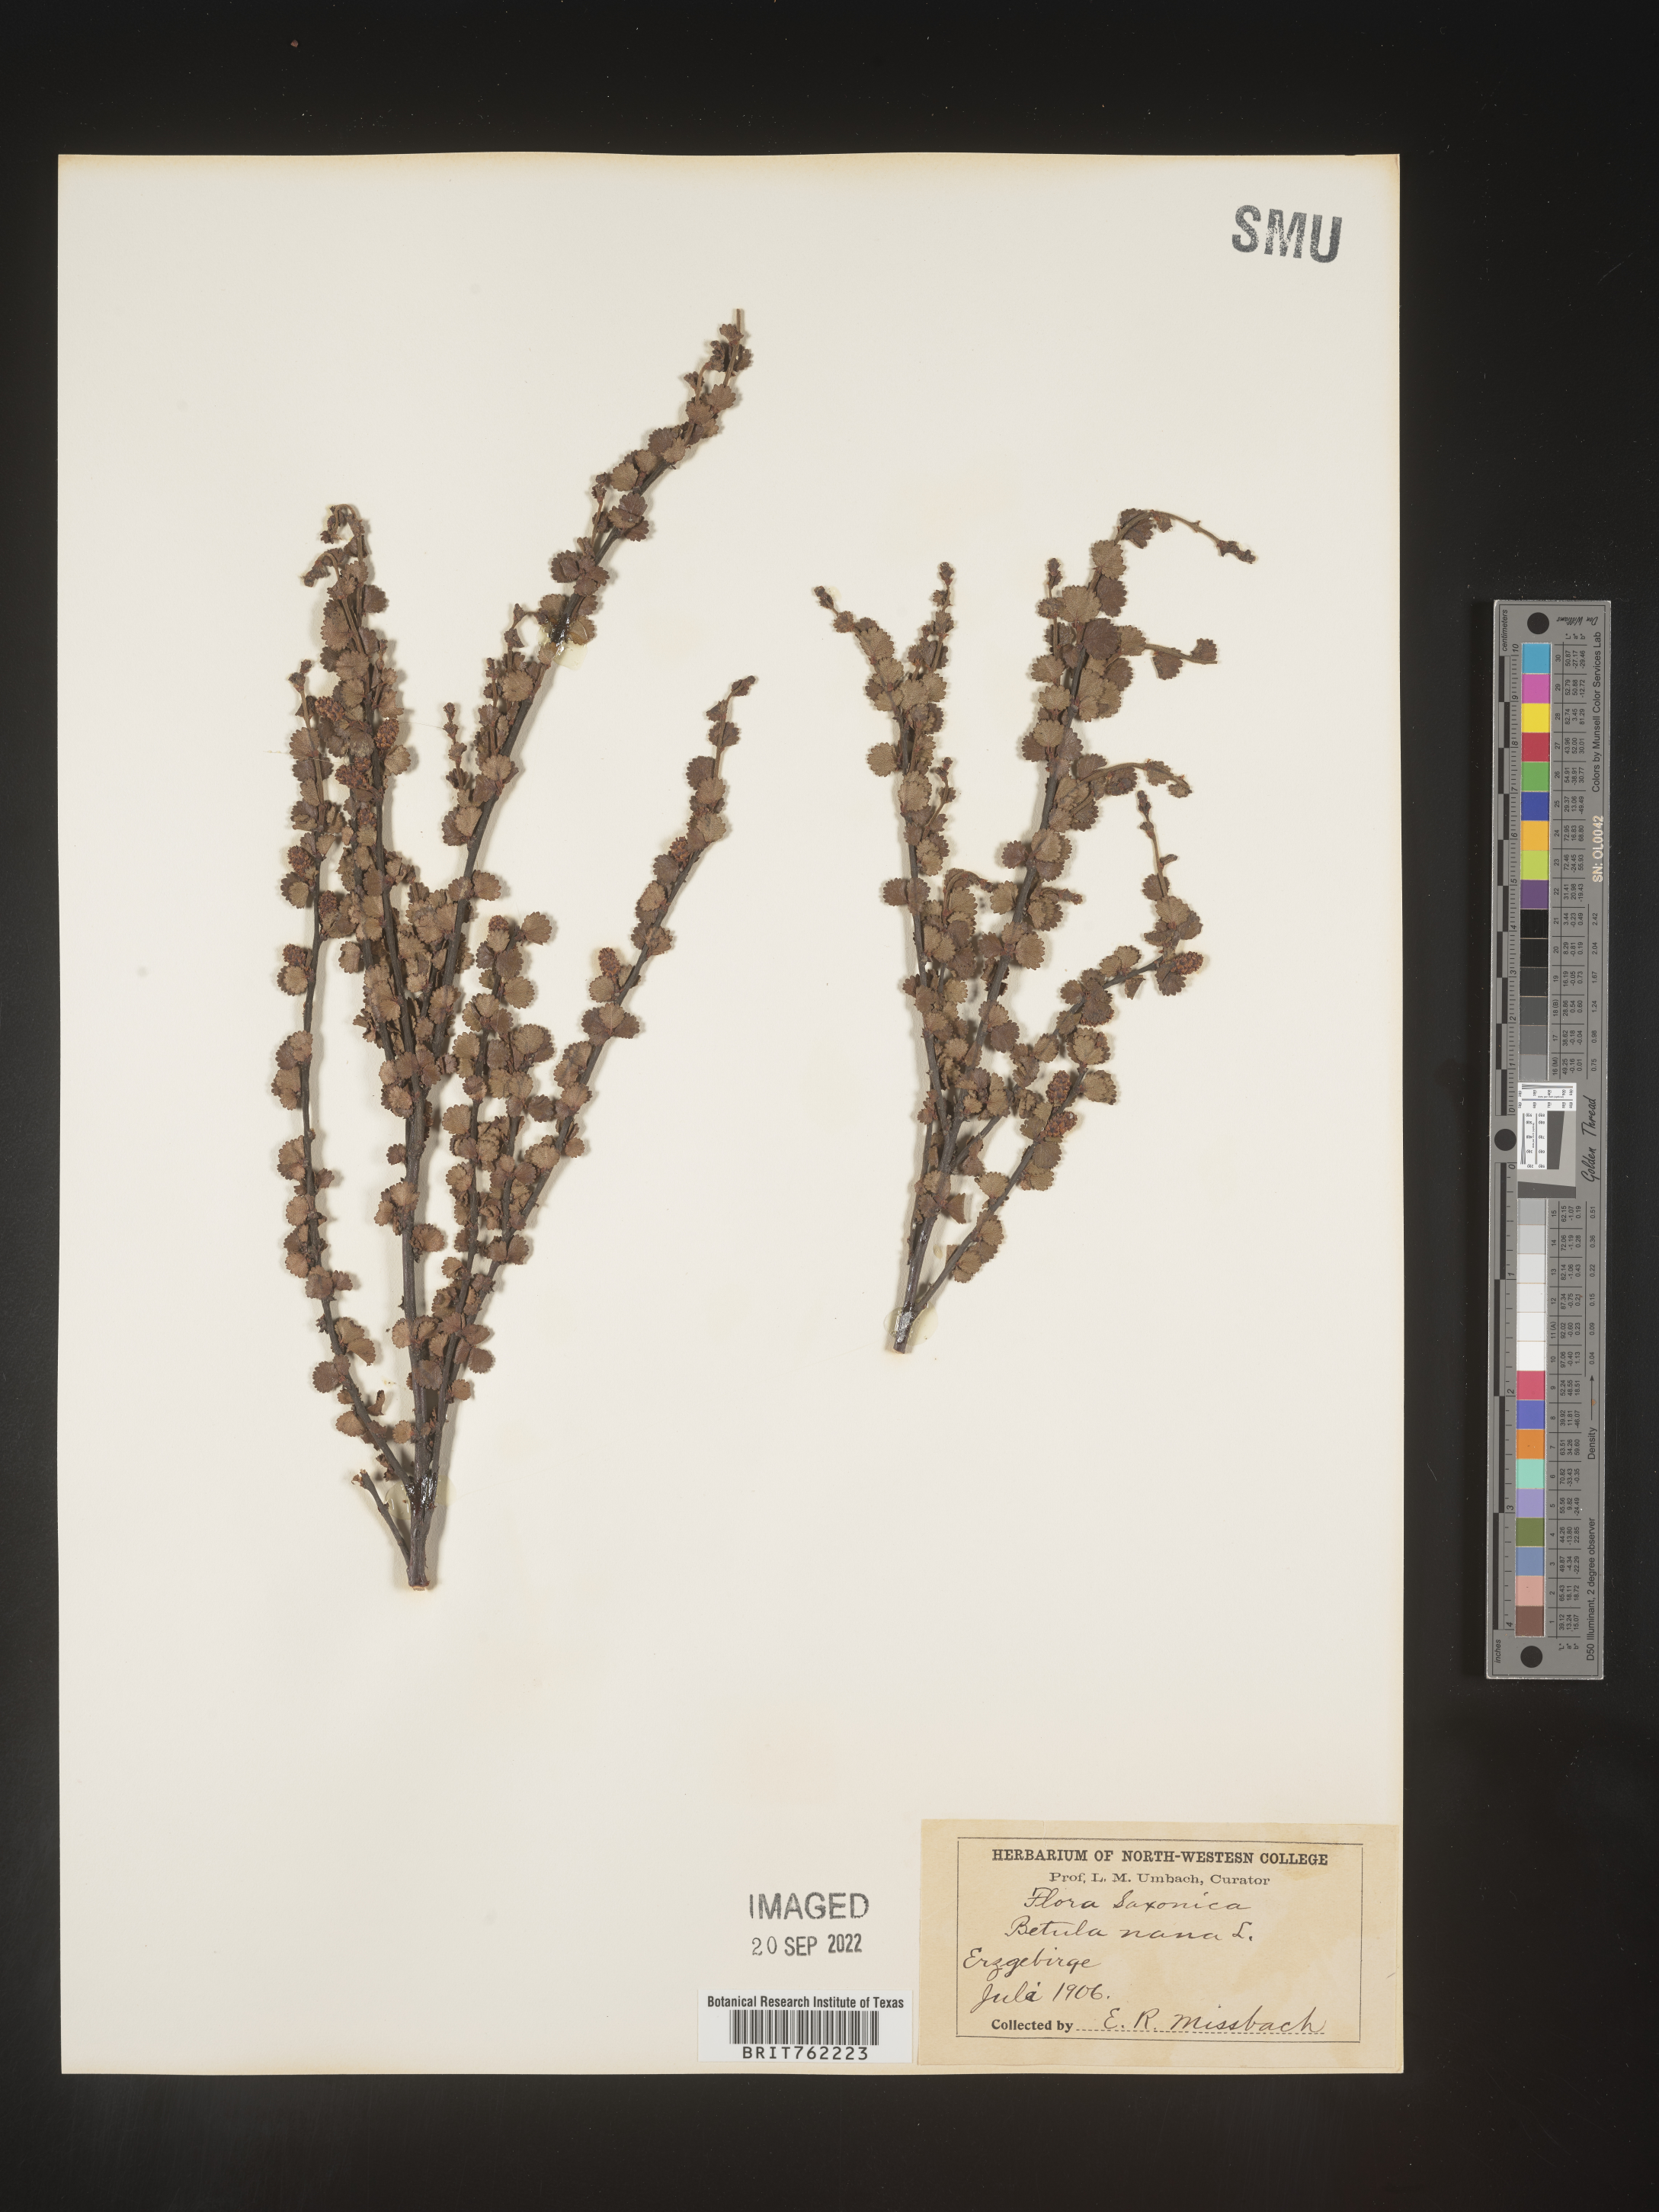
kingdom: Plantae
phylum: Tracheophyta
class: Magnoliopsida
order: Fagales
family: Betulaceae
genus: Betula
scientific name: Betula
